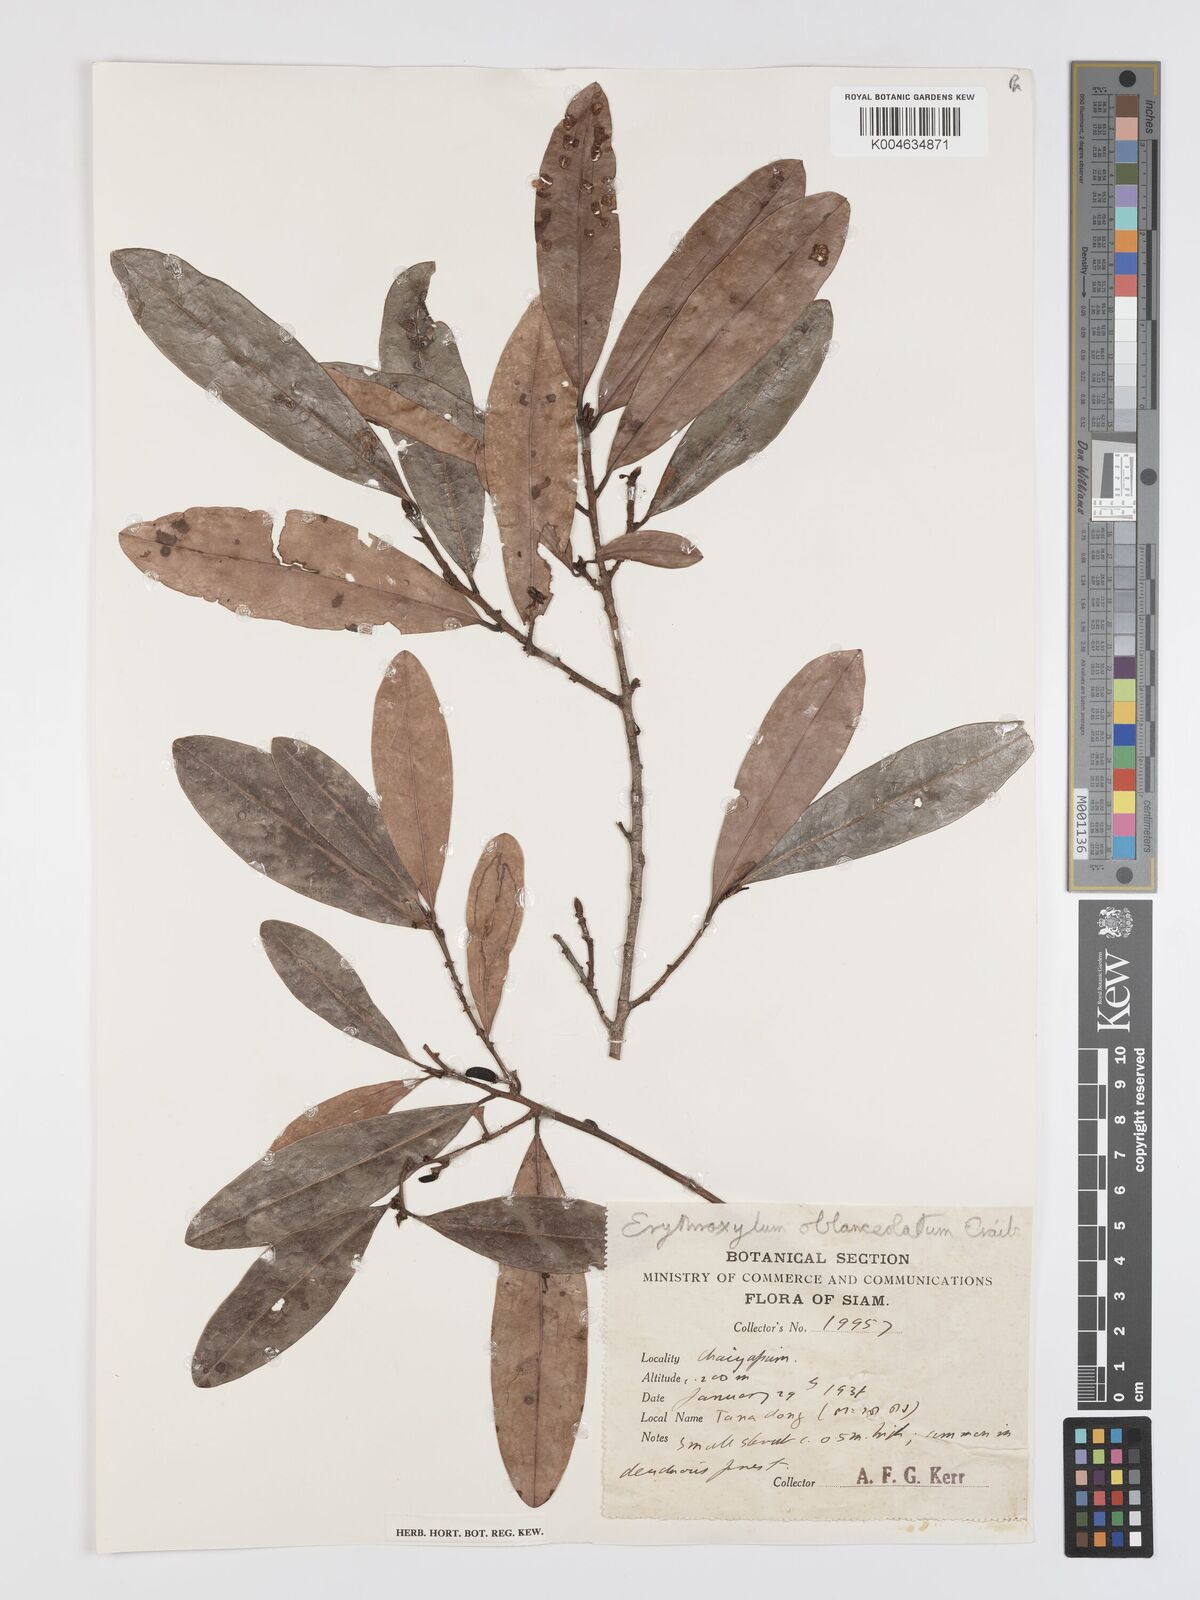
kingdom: Plantae
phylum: Tracheophyta
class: Magnoliopsida
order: Malpighiales
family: Erythroxylaceae
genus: Erythroxylum
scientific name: Erythroxylum cuneatum
